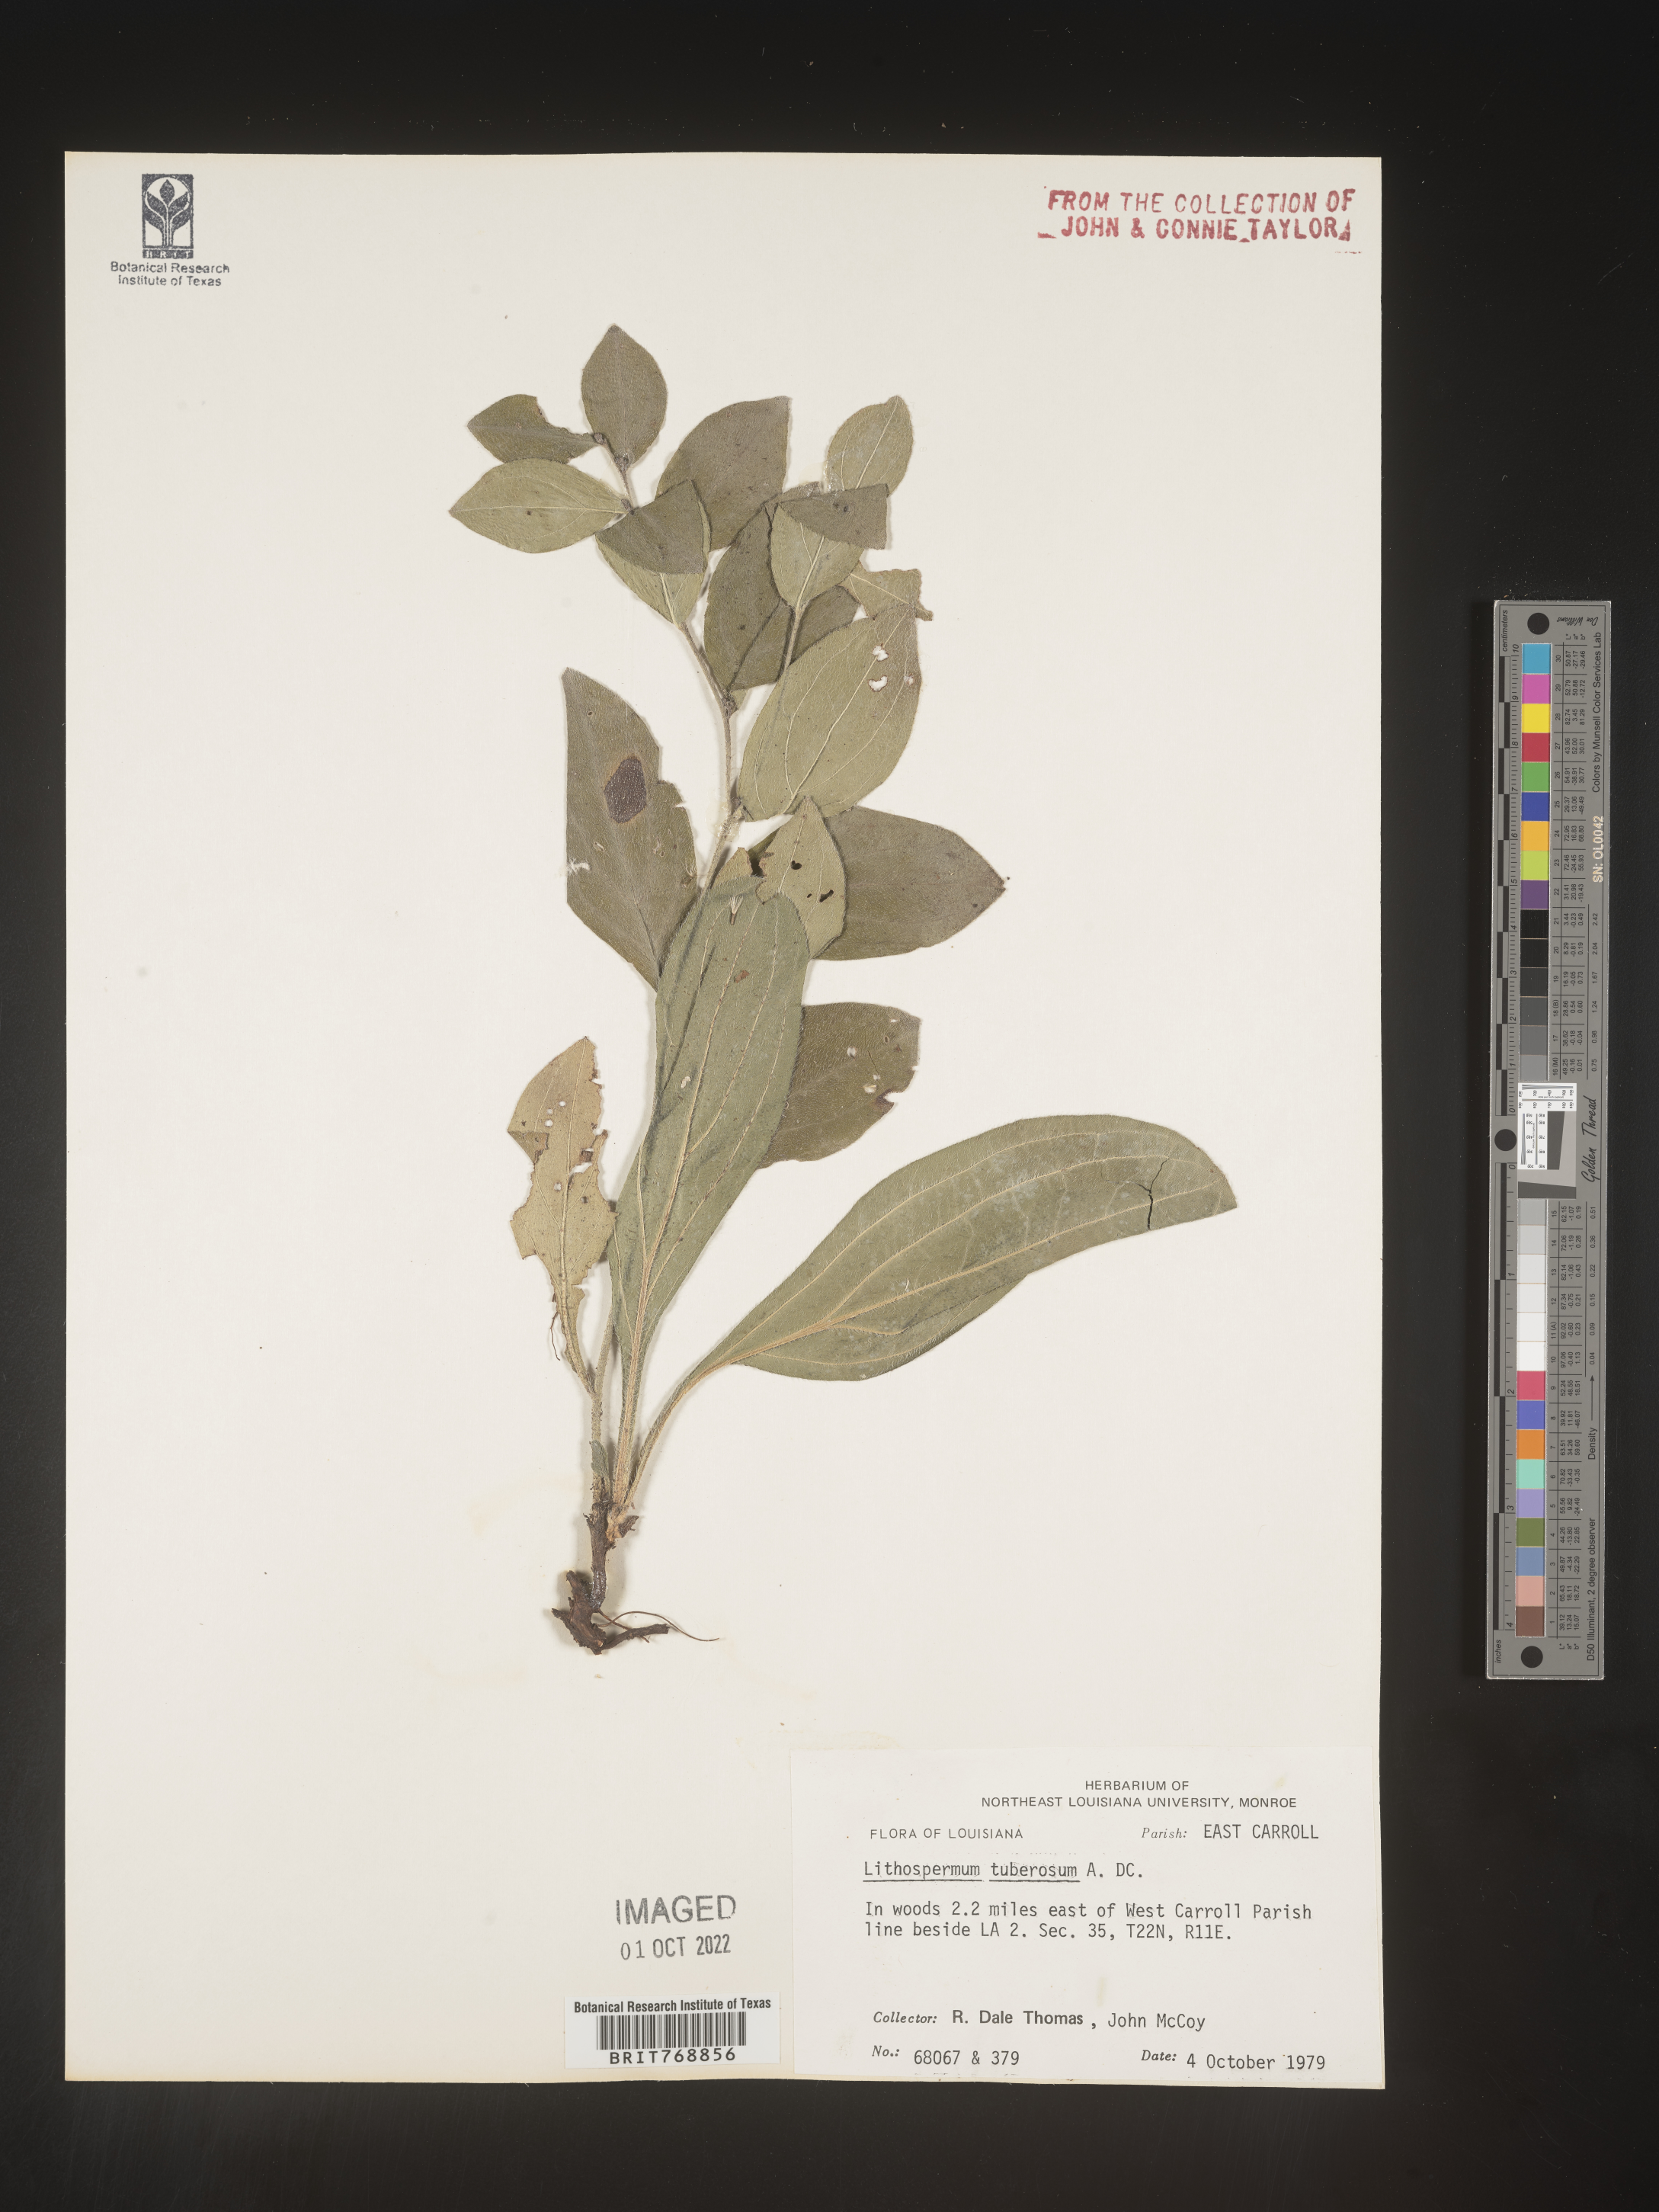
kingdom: Plantae
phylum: Tracheophyta
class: Magnoliopsida
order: Boraginales
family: Boraginaceae
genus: Lithospermum
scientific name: Lithospermum
